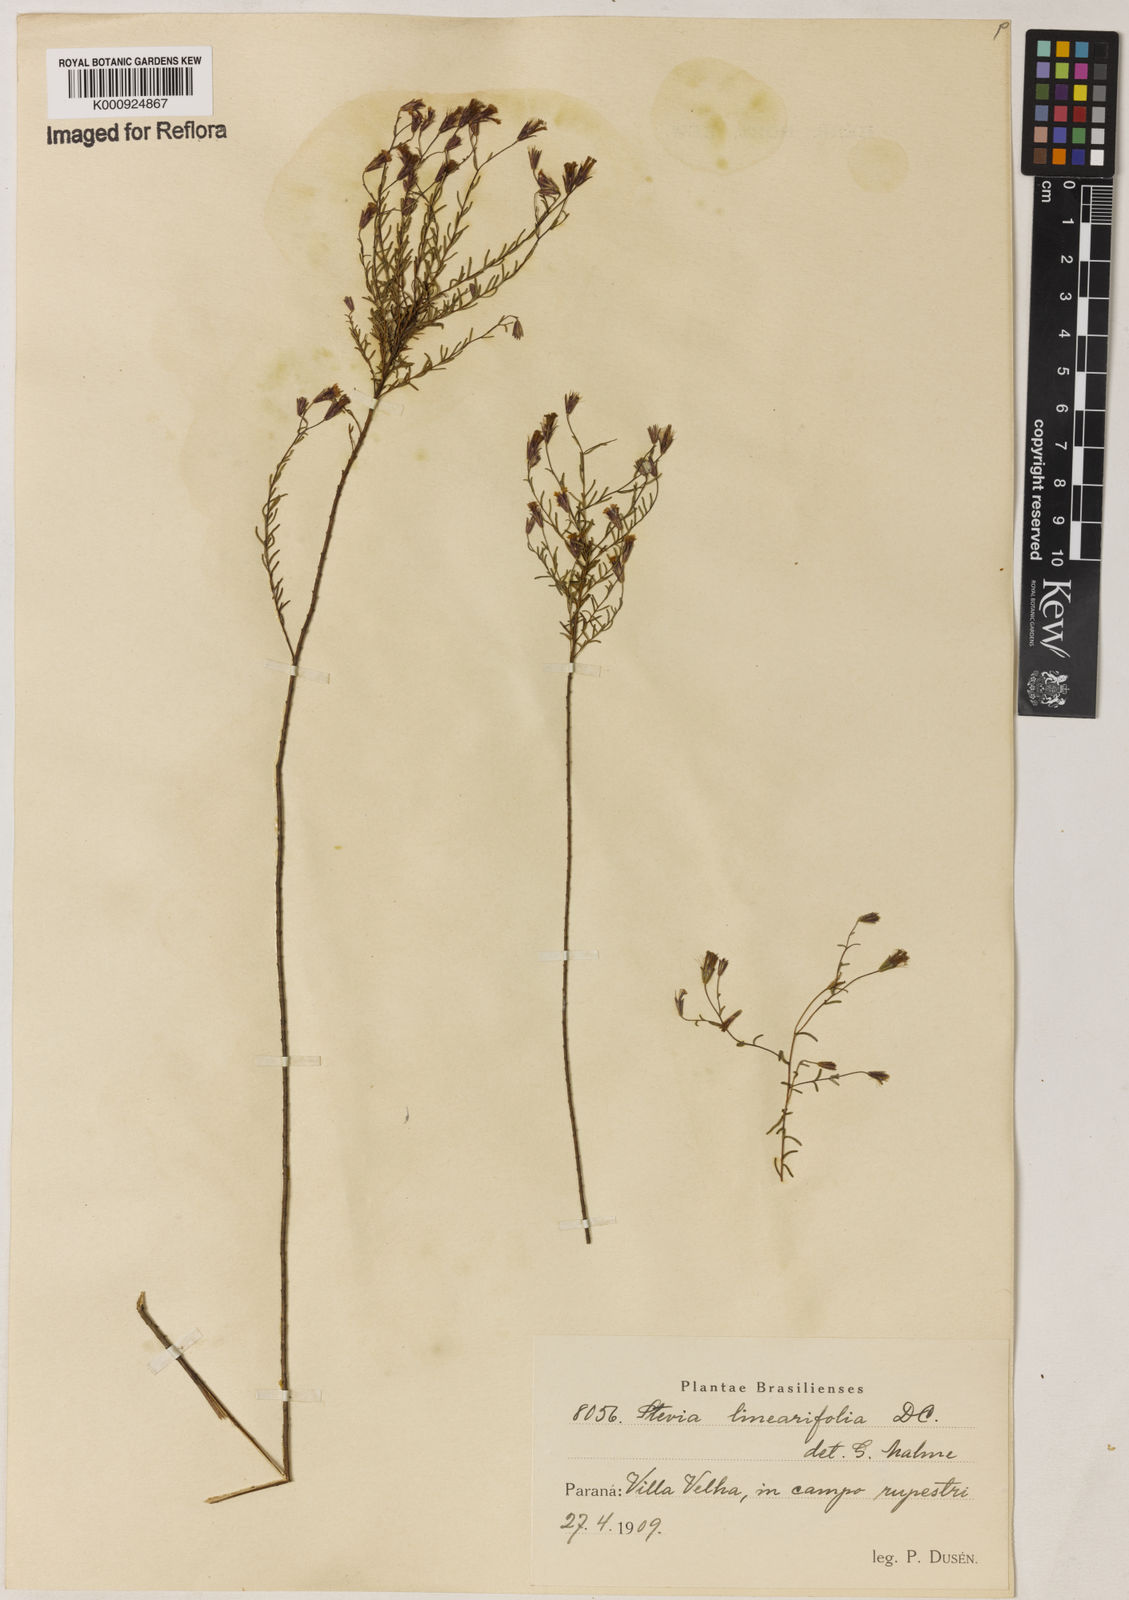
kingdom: Plantae
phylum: Tracheophyta
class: Magnoliopsida
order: Asterales
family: Asteraceae
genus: Stevia
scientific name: Stevia
